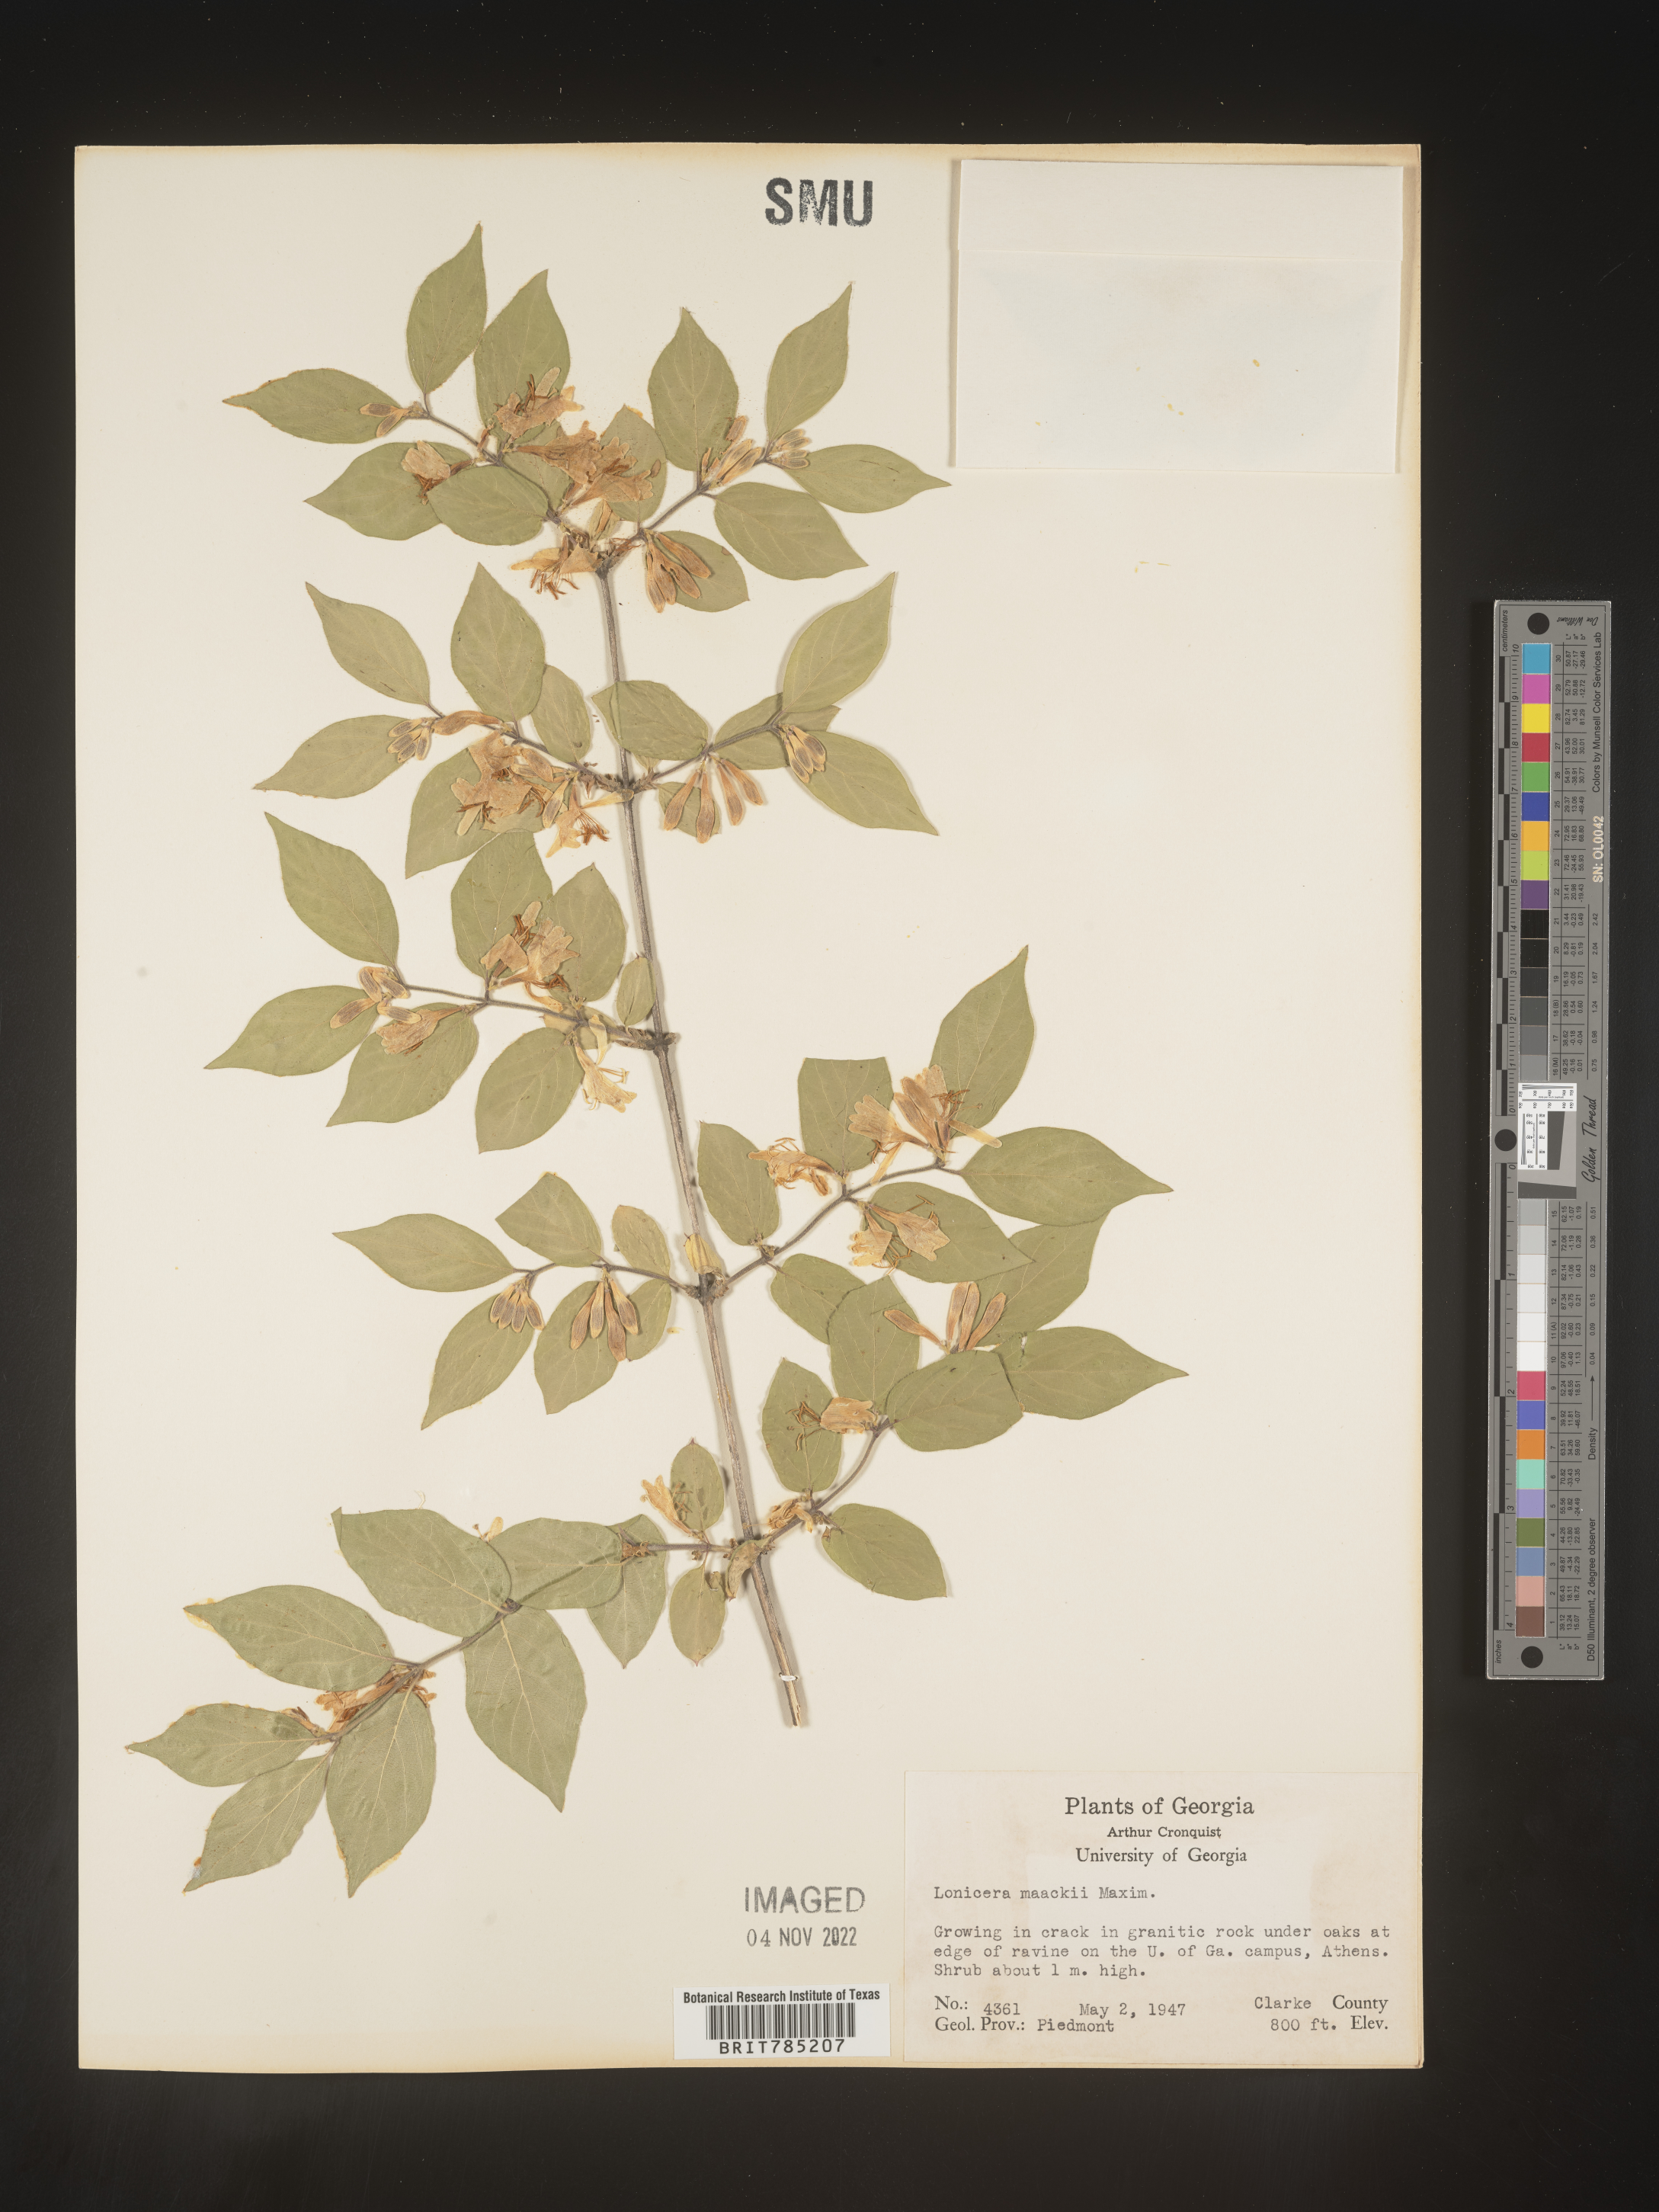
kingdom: Plantae
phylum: Tracheophyta
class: Magnoliopsida
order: Dipsacales
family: Caprifoliaceae
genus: Lonicera
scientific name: Lonicera
